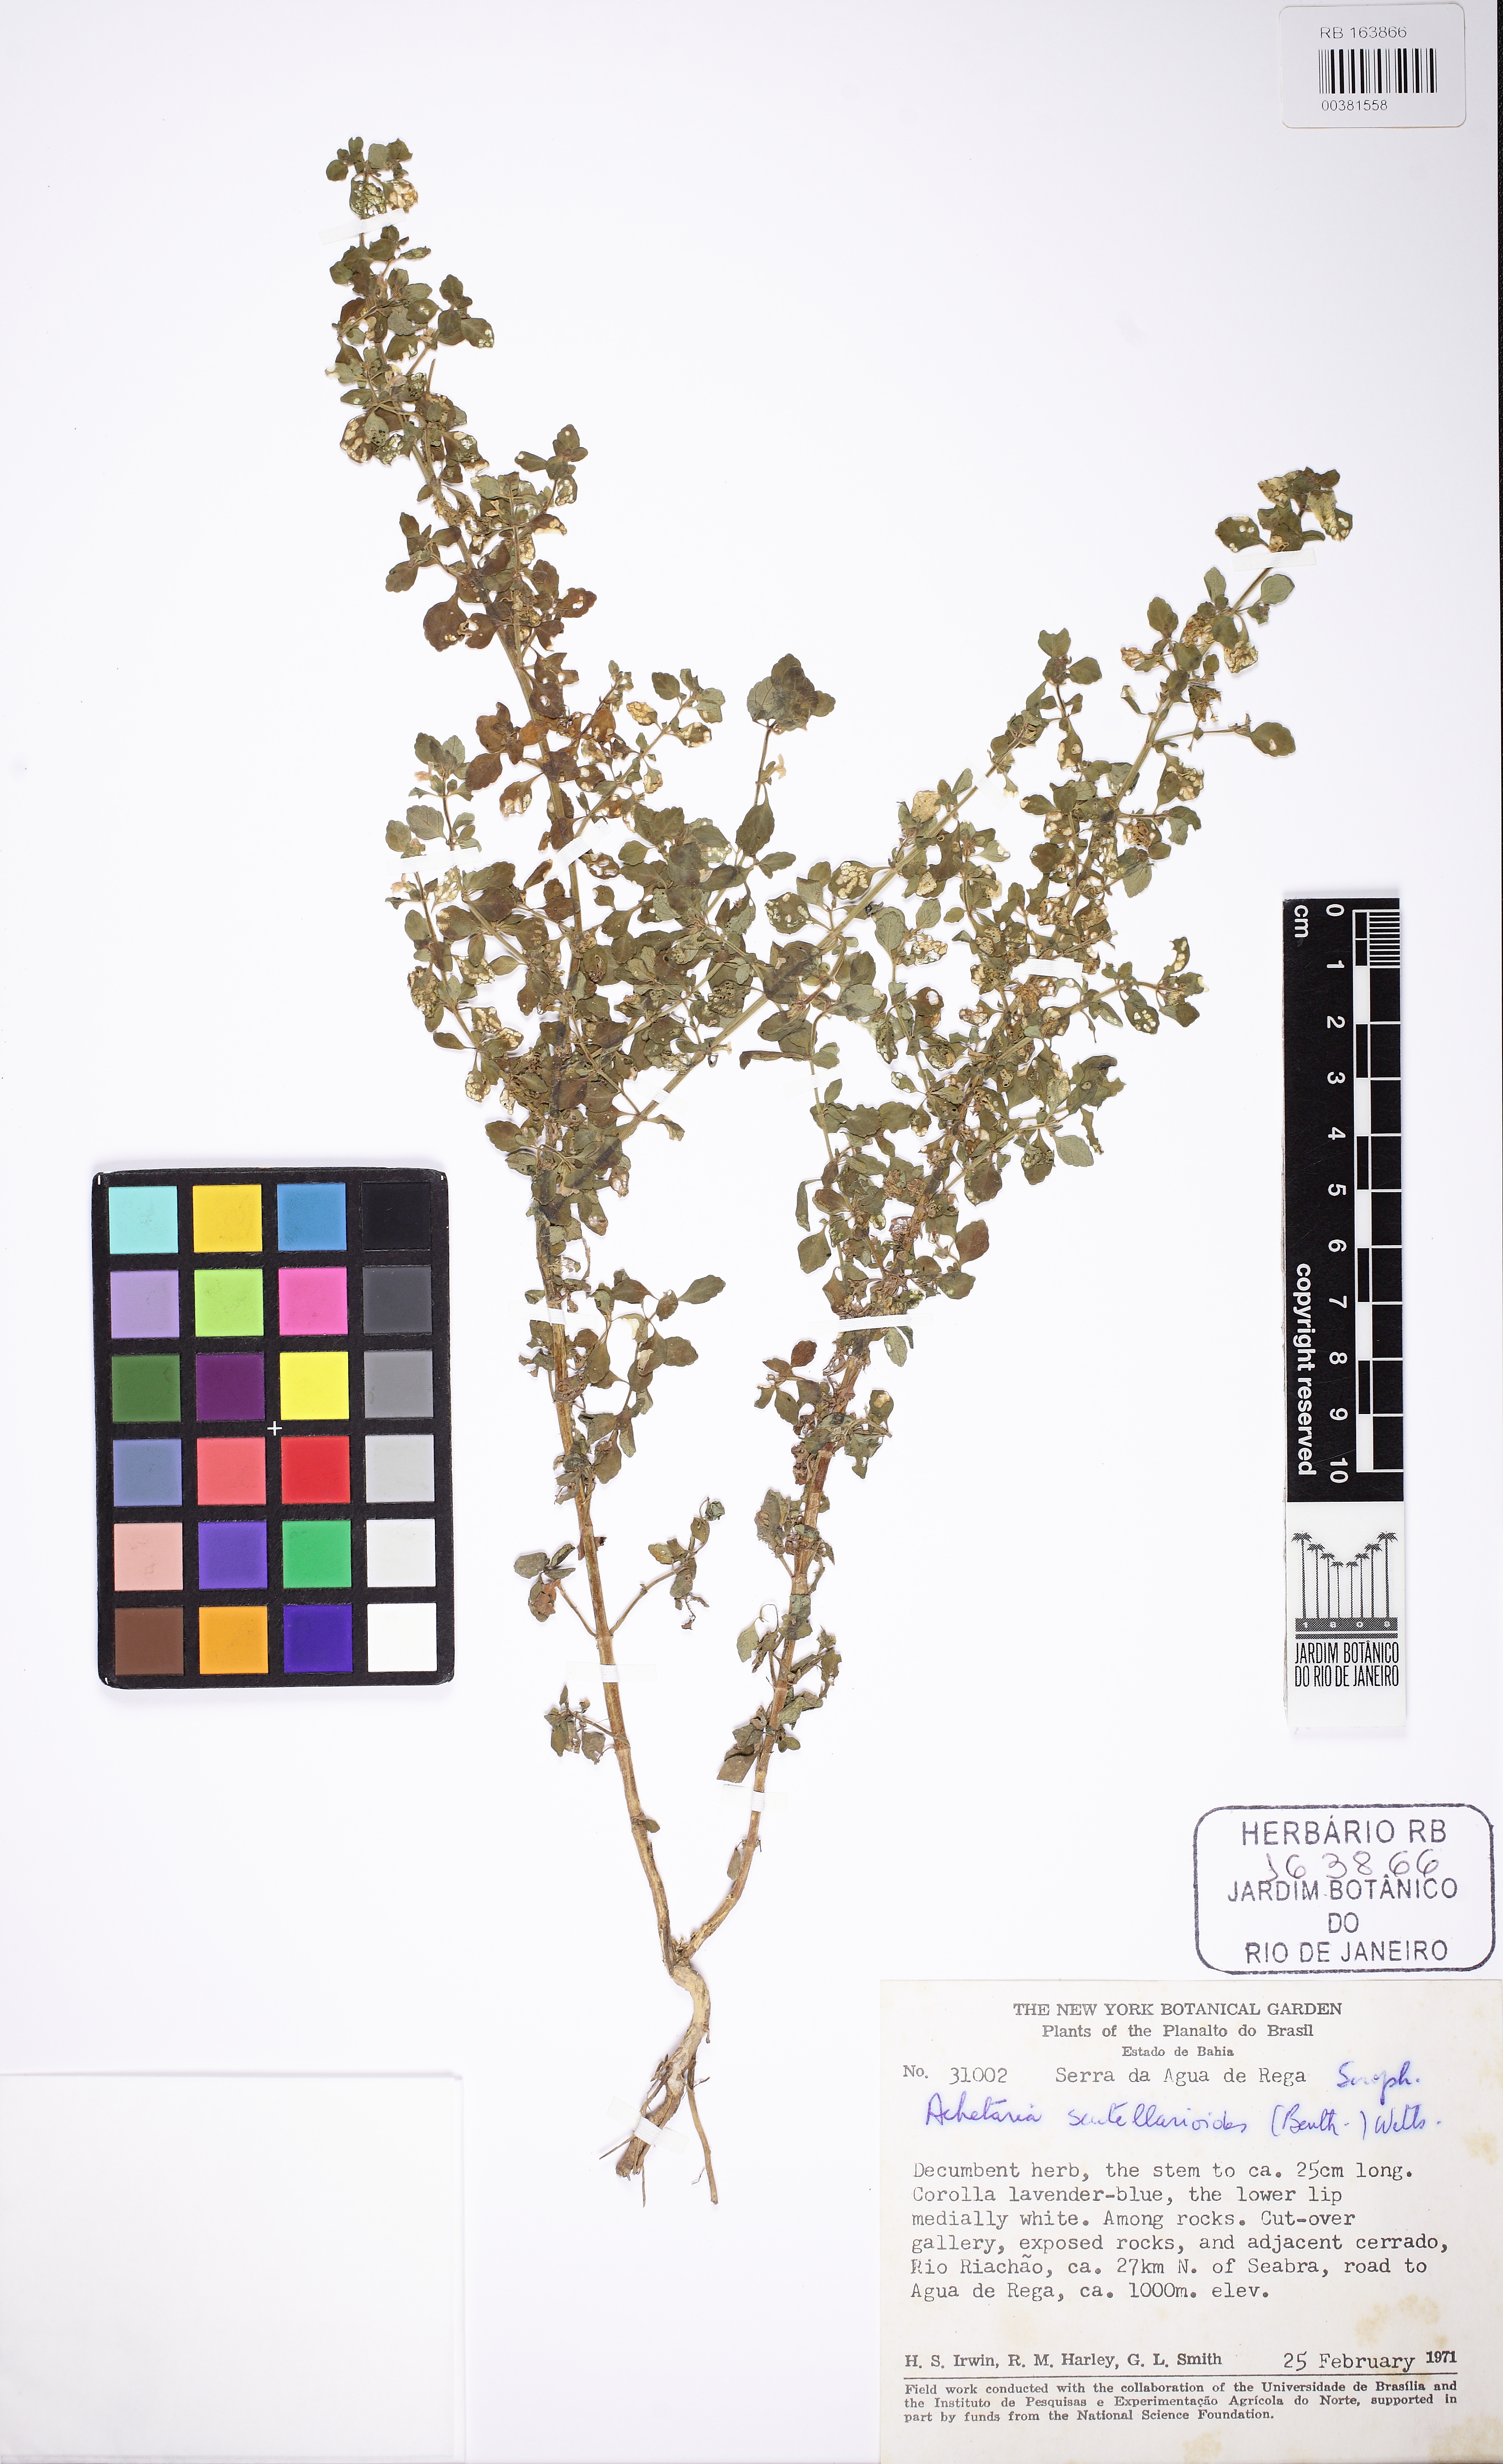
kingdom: Plantae
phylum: Tracheophyta
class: Magnoliopsida
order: Lamiales
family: Plantaginaceae
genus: Matourea
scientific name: Matourea pratensis
